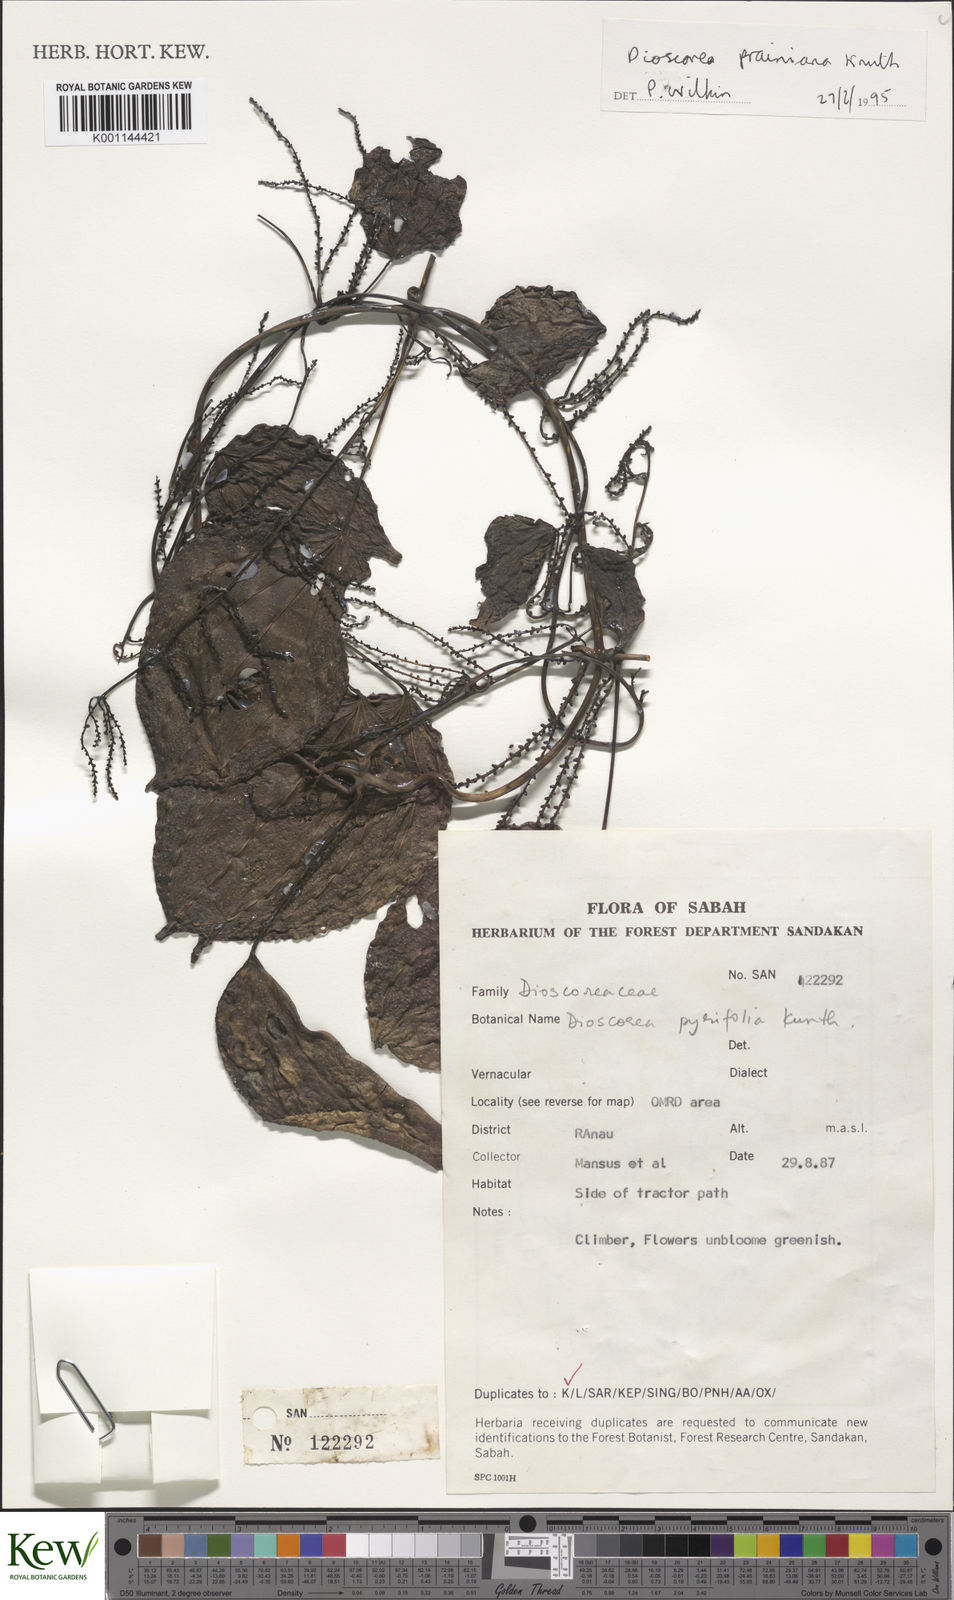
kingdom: Plantae
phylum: Tracheophyta
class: Liliopsida
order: Dioscoreales
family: Dioscoreaceae
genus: Dioscorea
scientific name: Dioscorea prainiana
